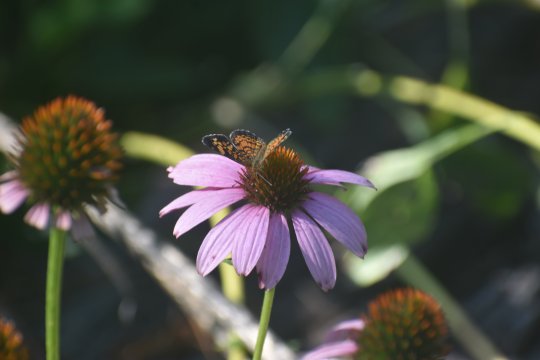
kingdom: Animalia
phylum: Arthropoda
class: Insecta
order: Lepidoptera
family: Nymphalidae
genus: Phyciodes
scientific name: Phyciodes tharos
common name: Pearl Crescent
